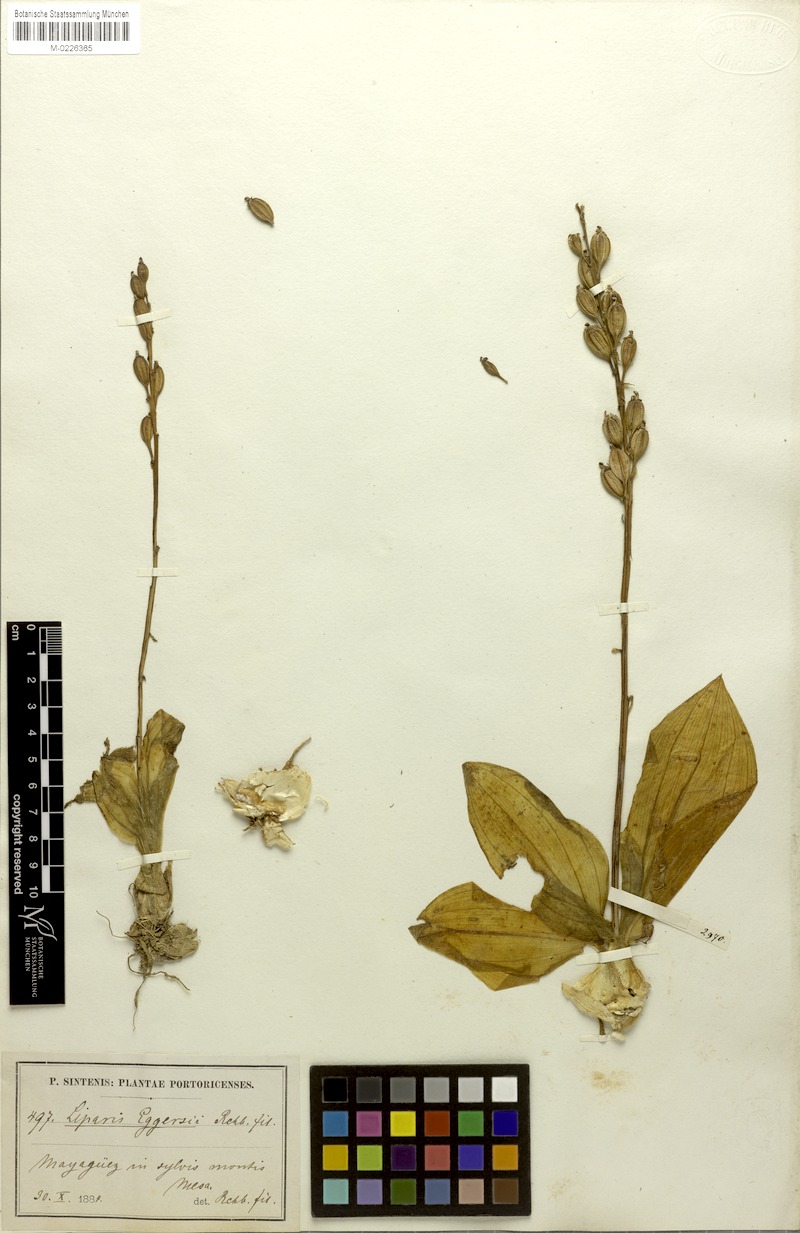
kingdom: Plantae
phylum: Tracheophyta
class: Liliopsida
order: Asparagales
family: Orchidaceae
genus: Liparis
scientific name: Liparis nervosa
